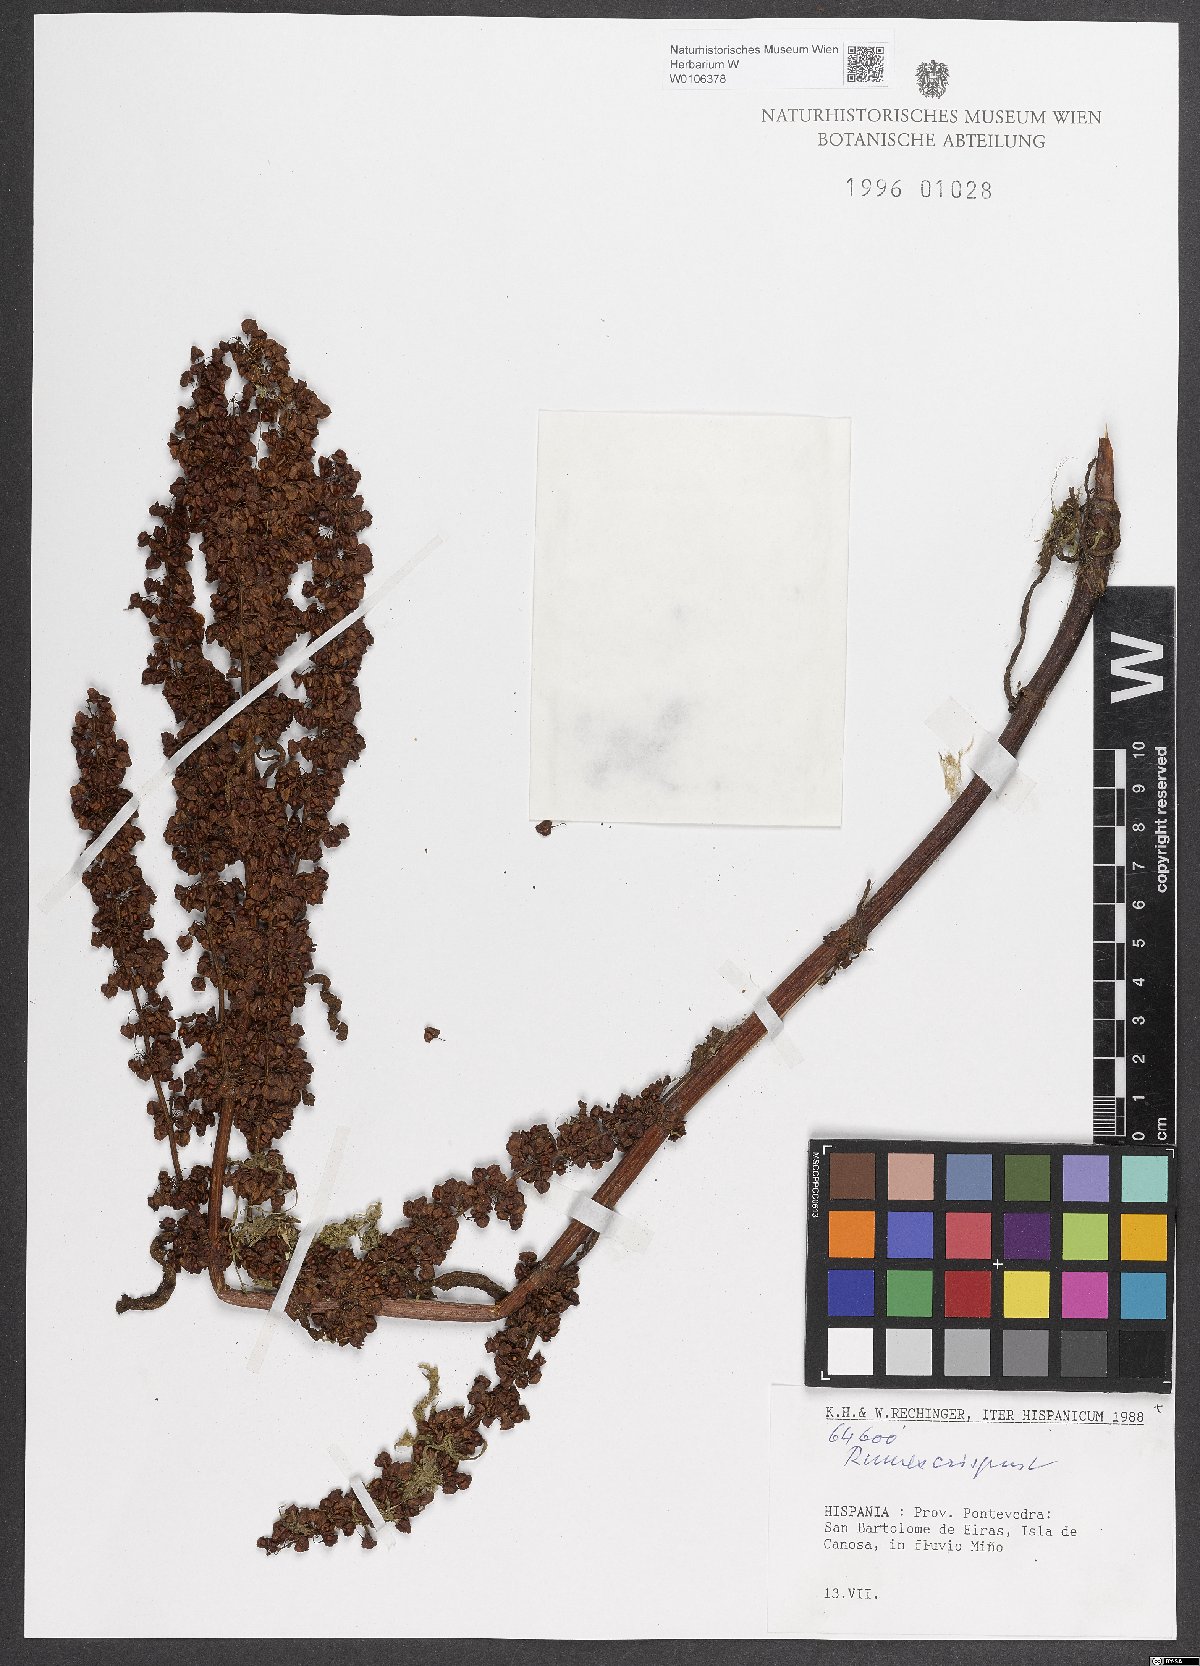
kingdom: Plantae
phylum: Tracheophyta
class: Magnoliopsida
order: Caryophyllales
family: Polygonaceae
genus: Rumex
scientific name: Rumex crispus
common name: Curled dock
